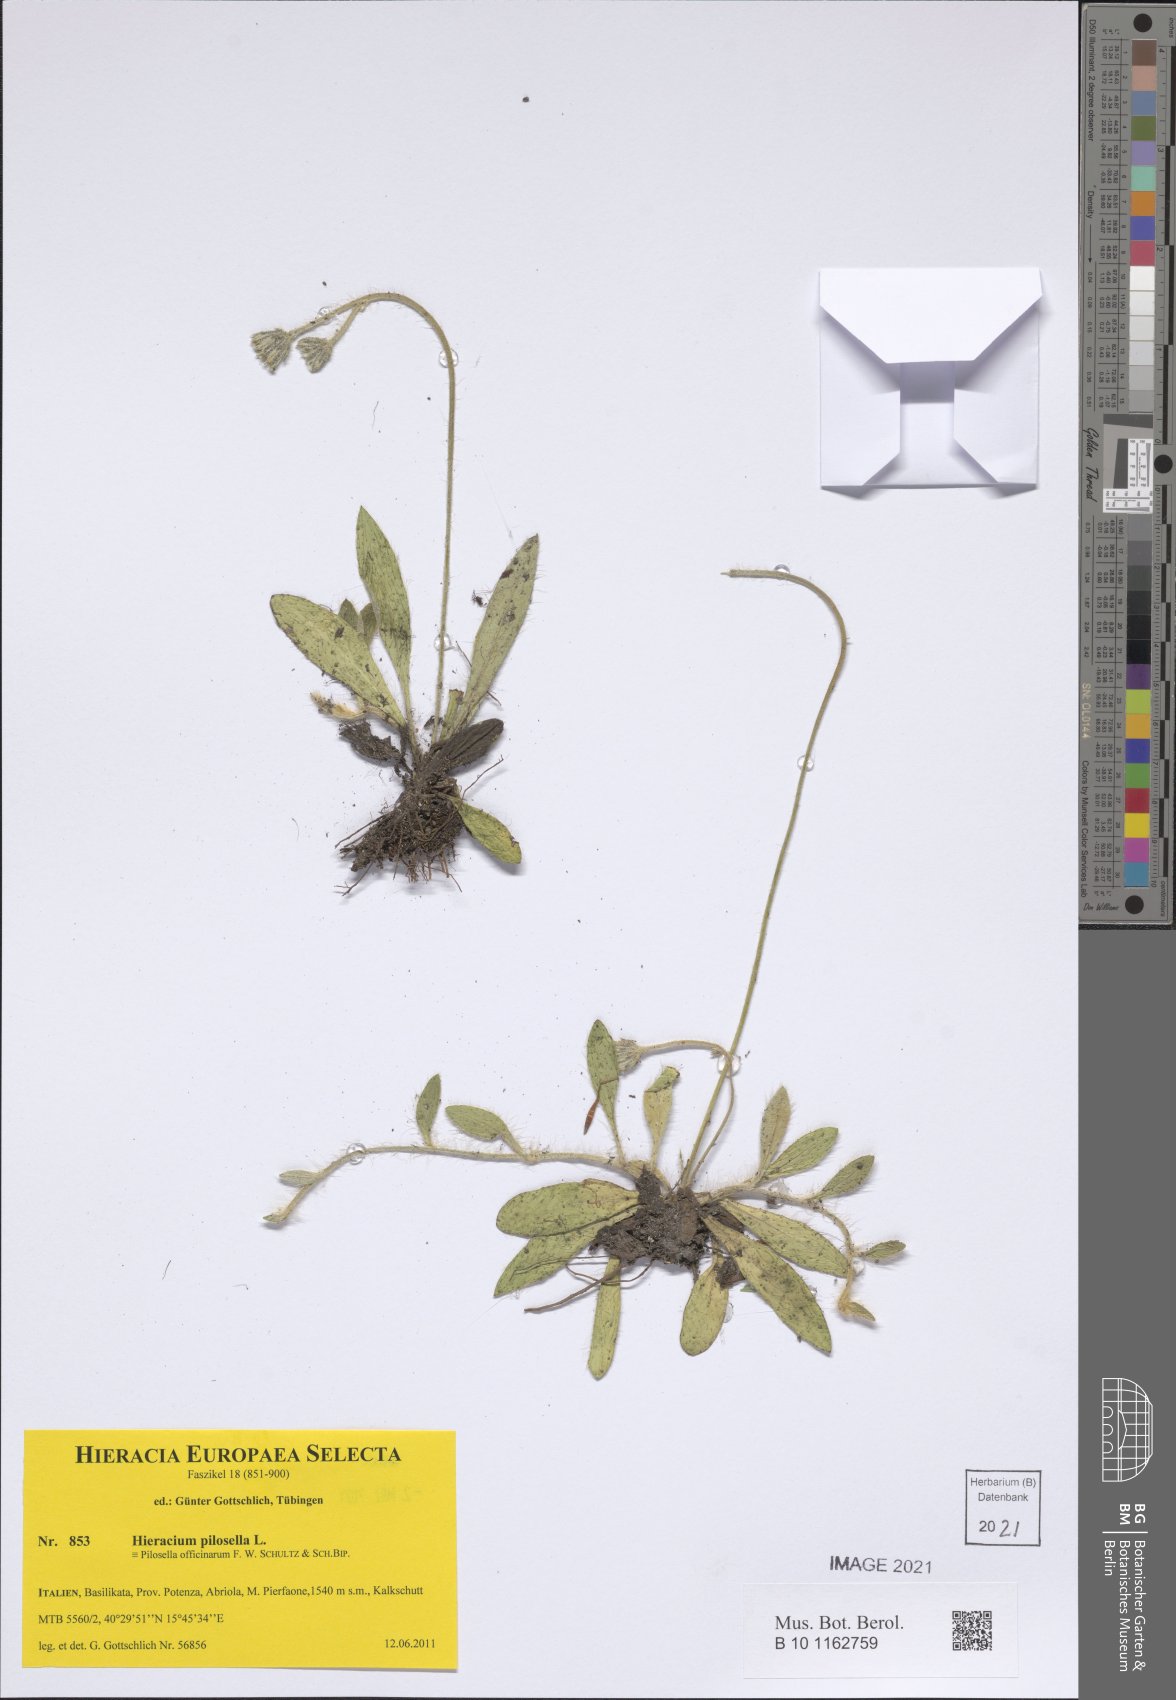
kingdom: Plantae
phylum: Tracheophyta
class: Magnoliopsida
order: Asterales
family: Asteraceae
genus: Pilosella
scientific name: Pilosella officinarum
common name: Mouse-ear hawkweed
